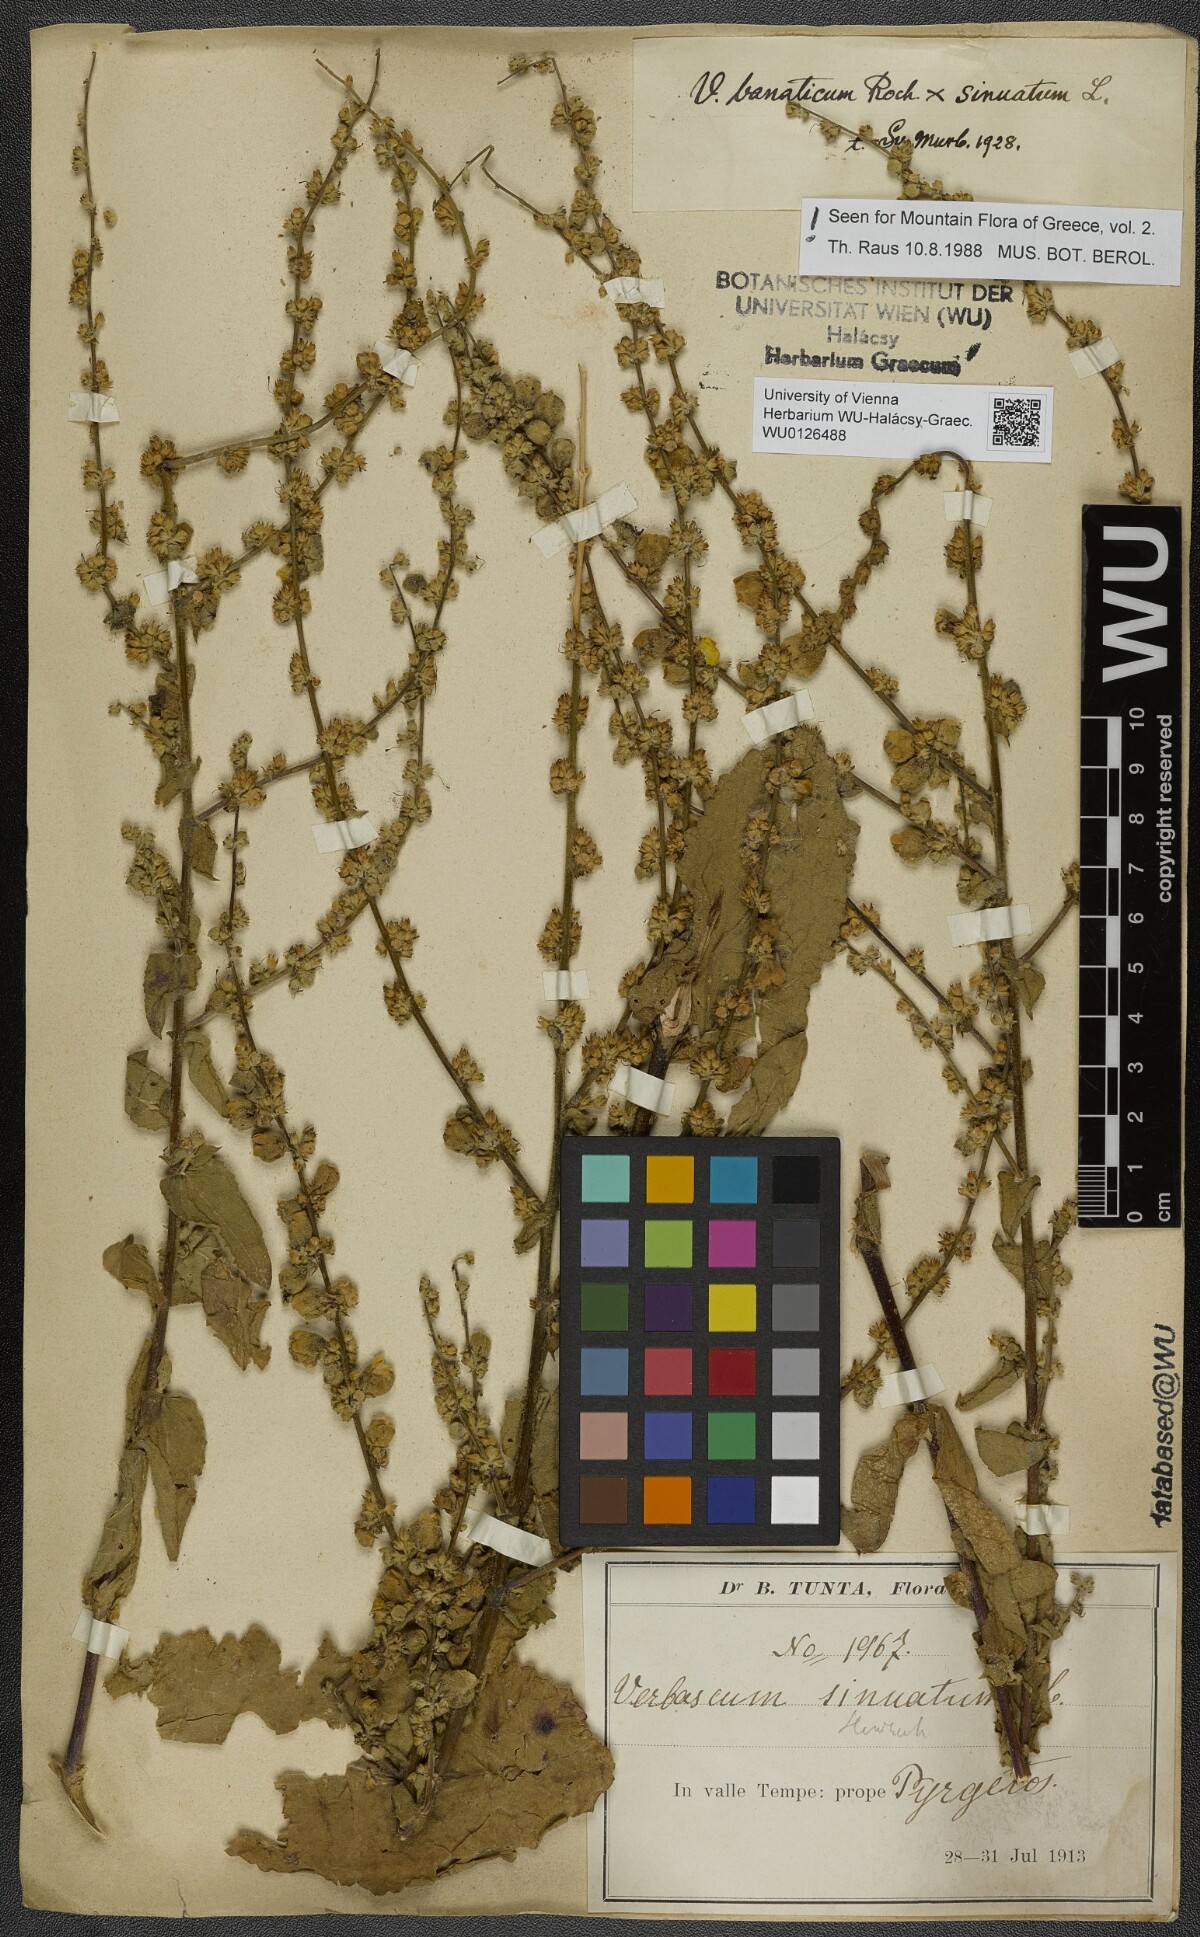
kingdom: Plantae
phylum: Tracheophyta
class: Magnoliopsida
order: Lamiales
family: Scrophulariaceae
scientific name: Scrophulariaceae
